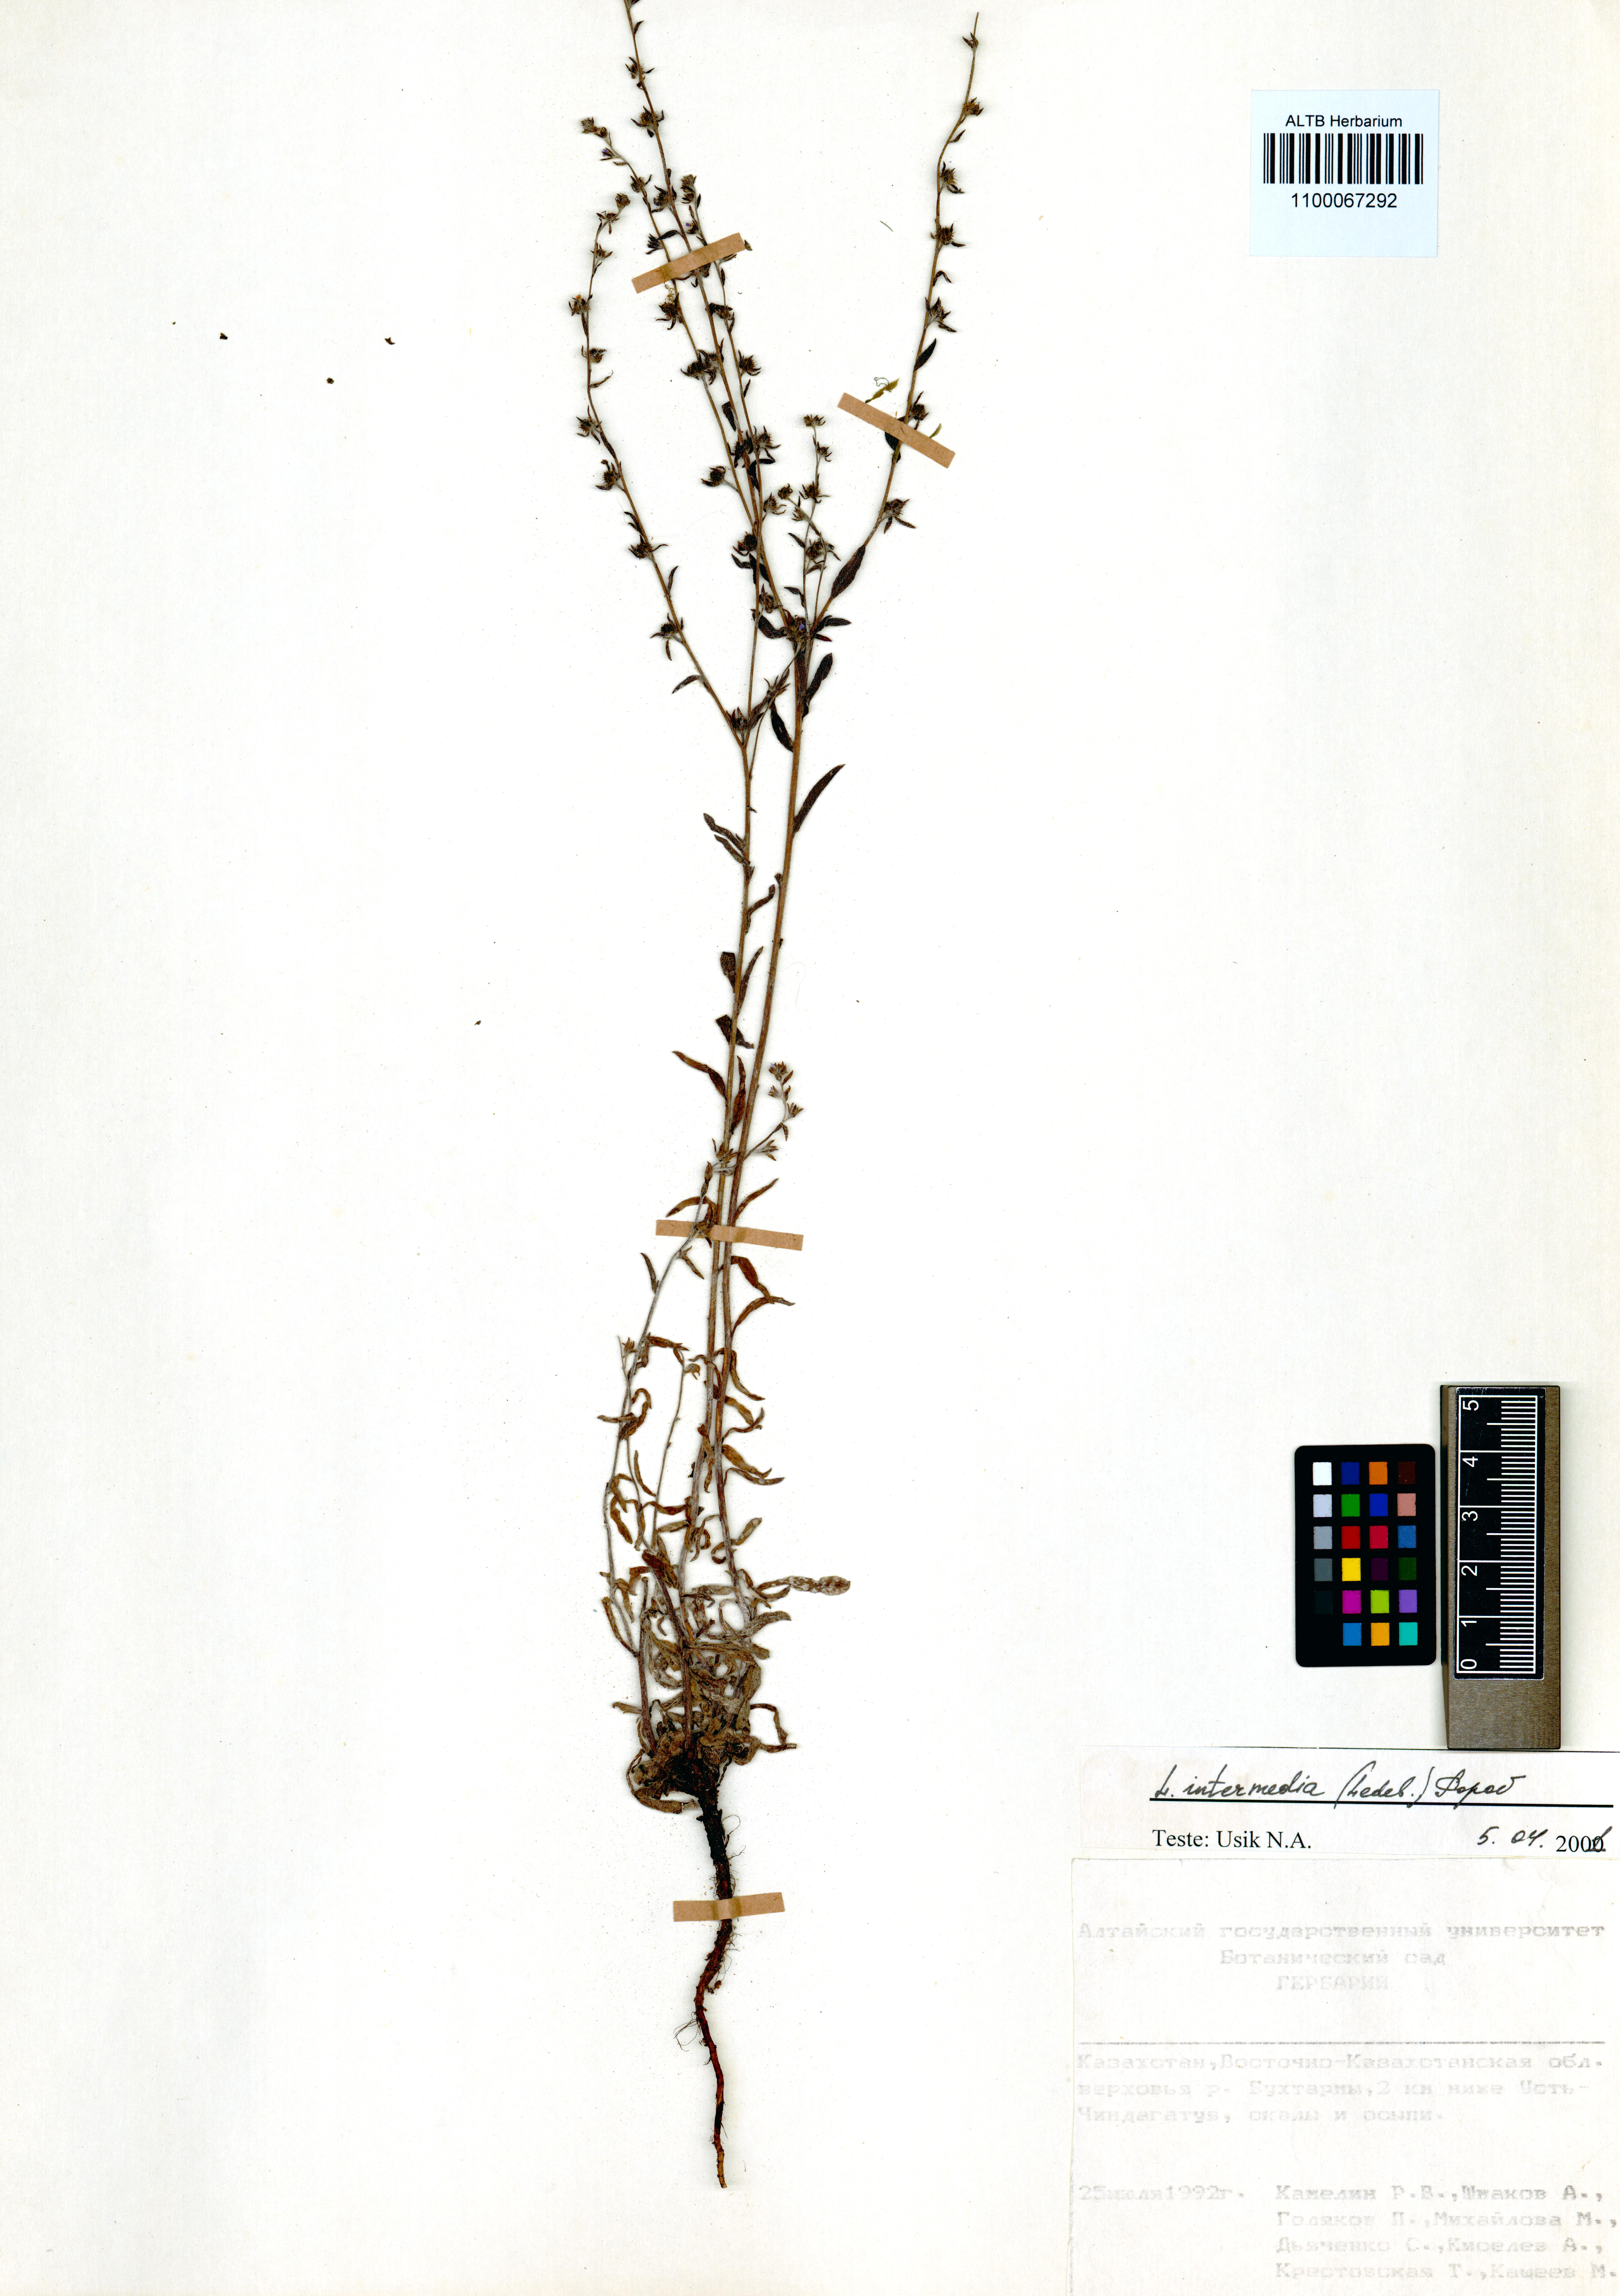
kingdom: Plantae
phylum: Tracheophyta
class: Magnoliopsida
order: Boraginales
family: Boraginaceae
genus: Lappula
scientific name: Lappula intermedia
